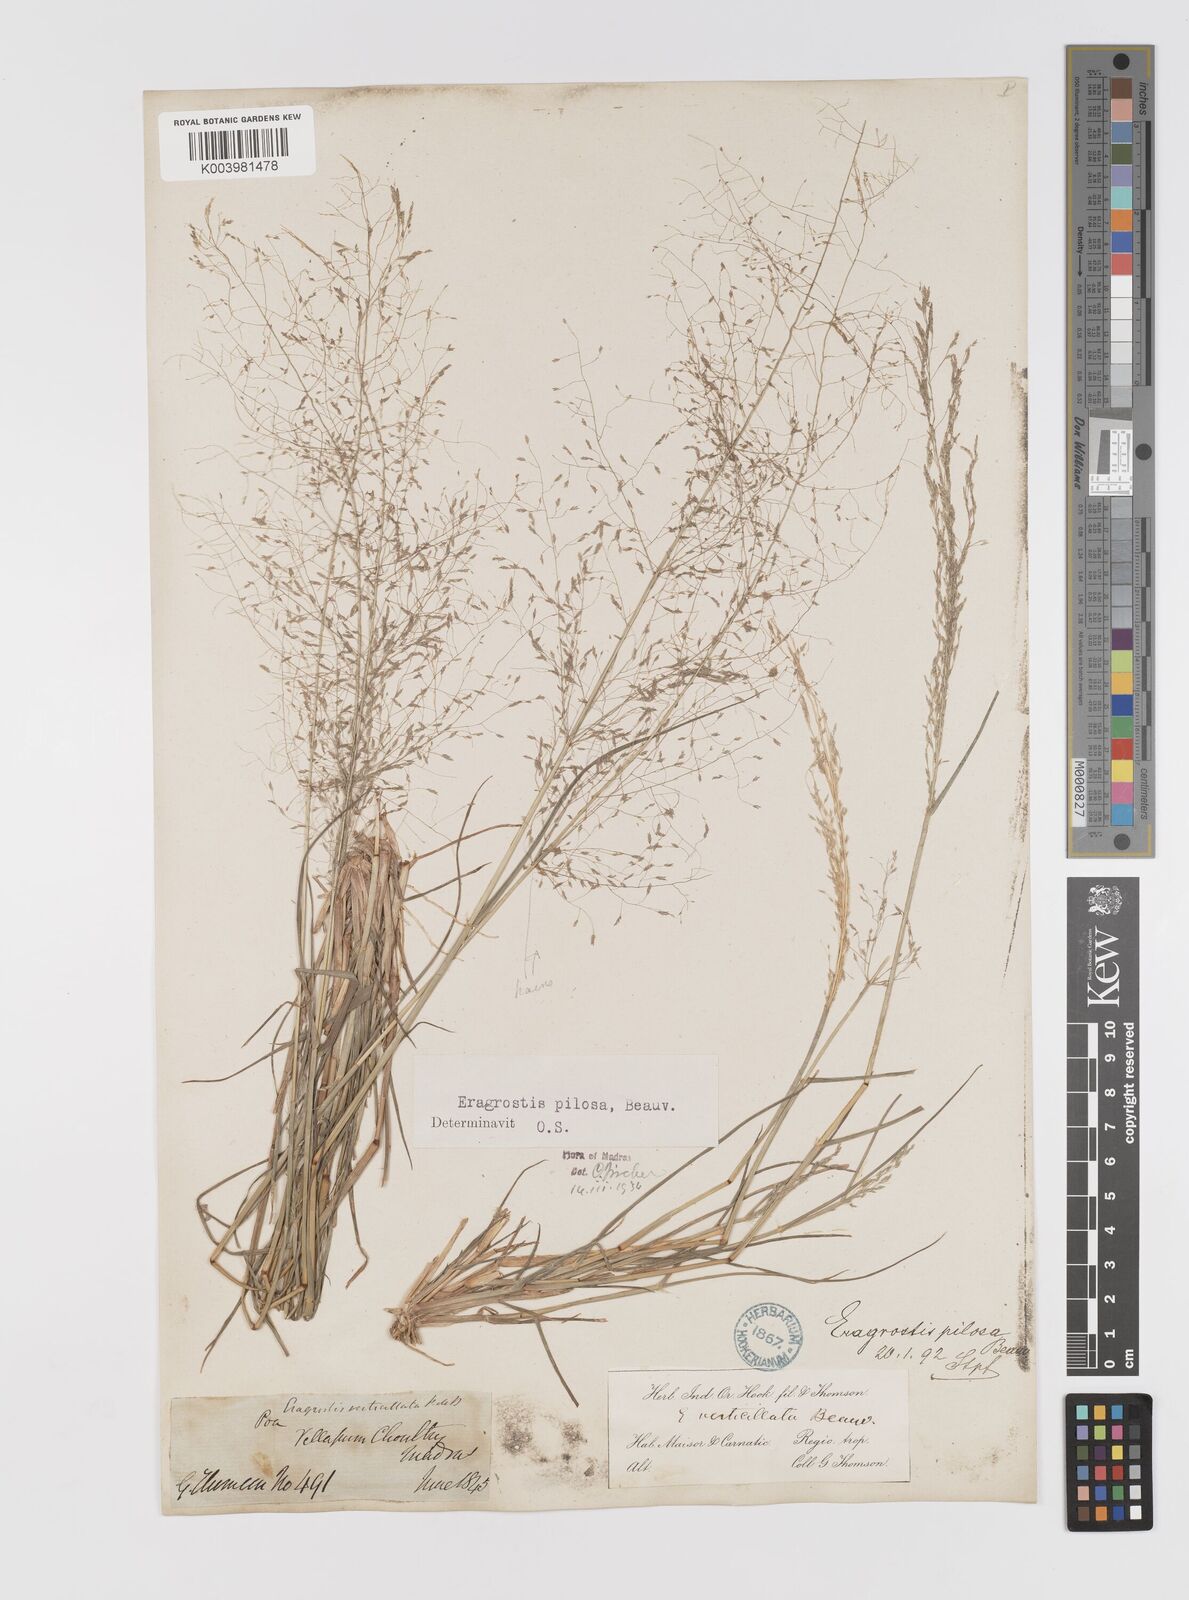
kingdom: Plantae
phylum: Tracheophyta
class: Liliopsida
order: Poales
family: Poaceae
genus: Eragrostis
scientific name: Eragrostis pilosa
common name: Indian lovegrass
